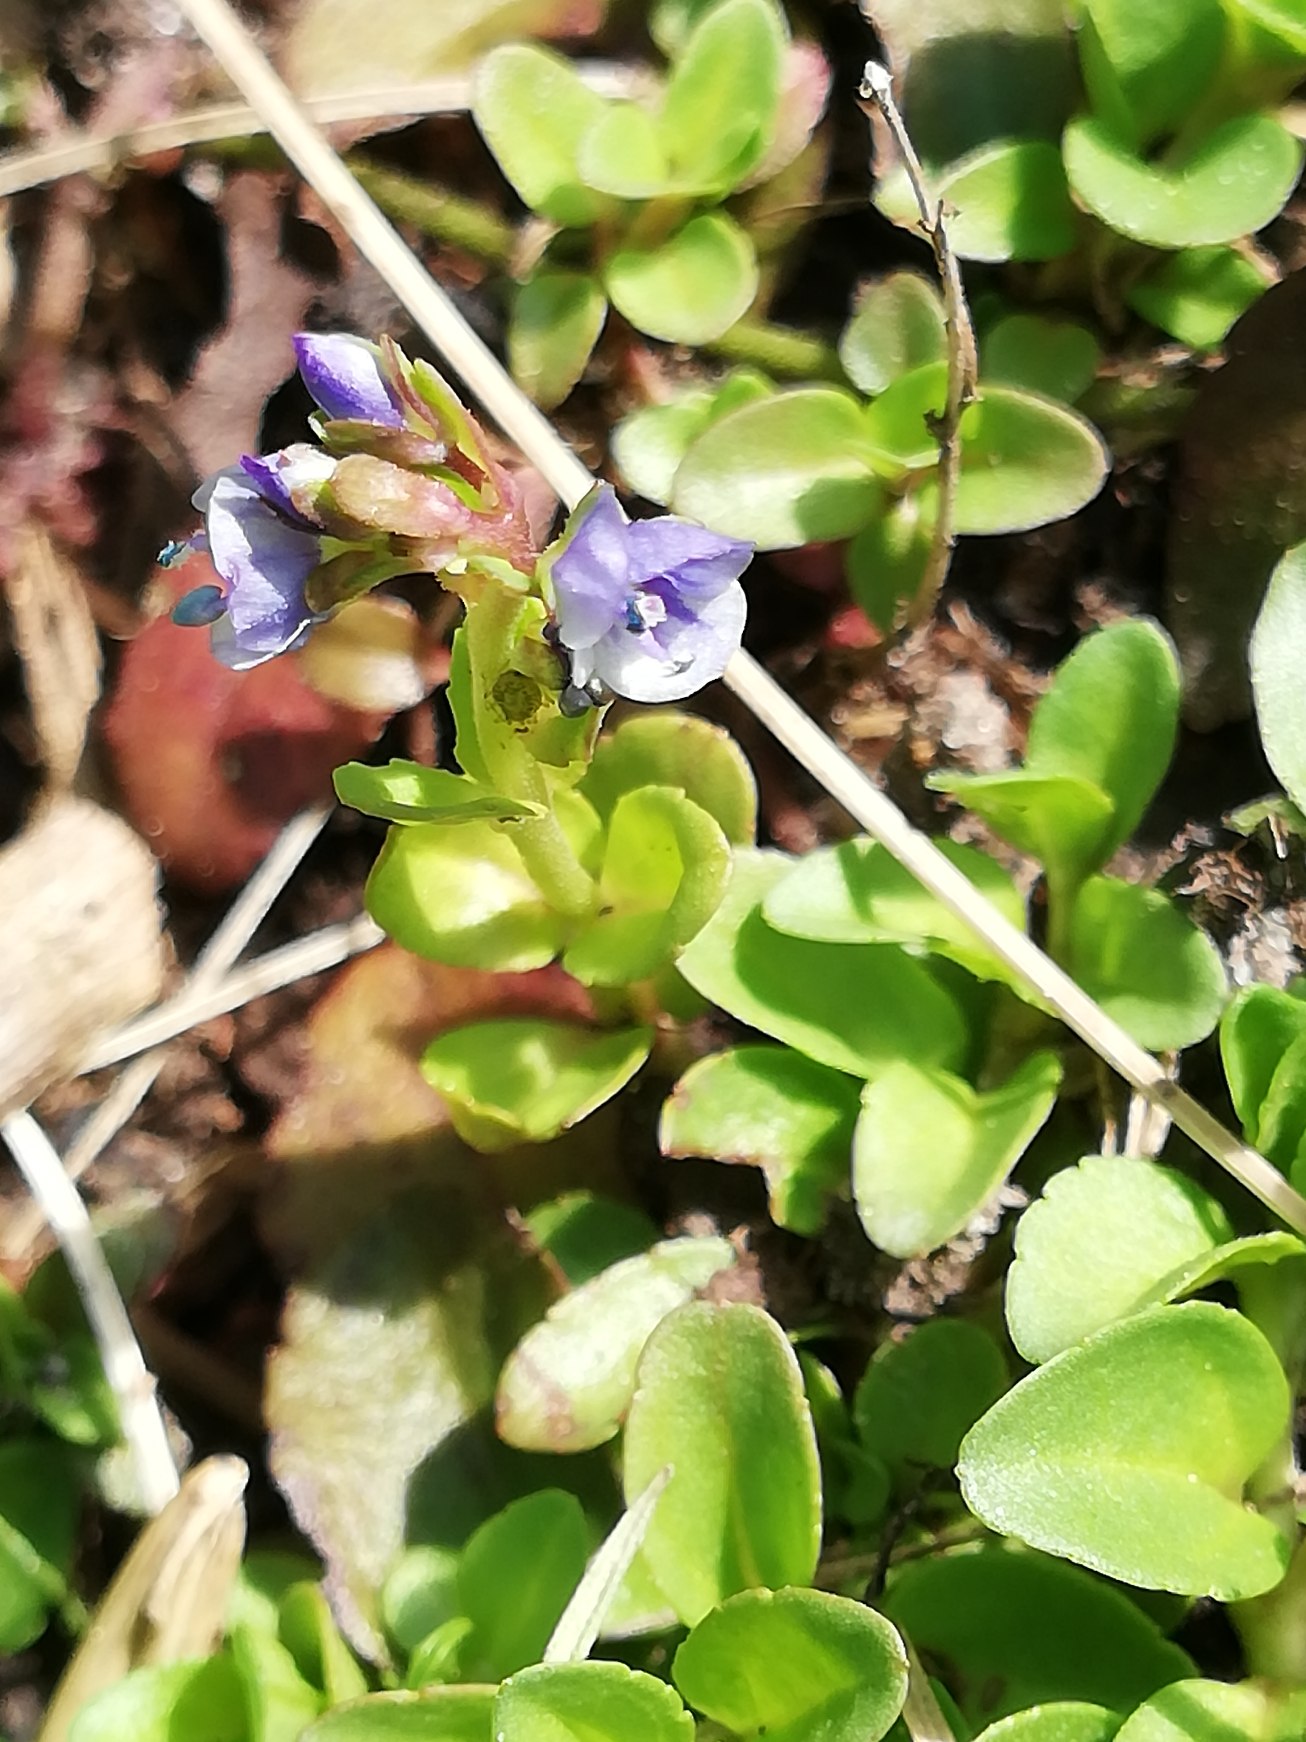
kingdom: Plantae
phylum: Tracheophyta
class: Magnoliopsida
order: Lamiales
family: Plantaginaceae
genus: Veronica
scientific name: Veronica serpyllifolia
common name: Glat ærenpris
